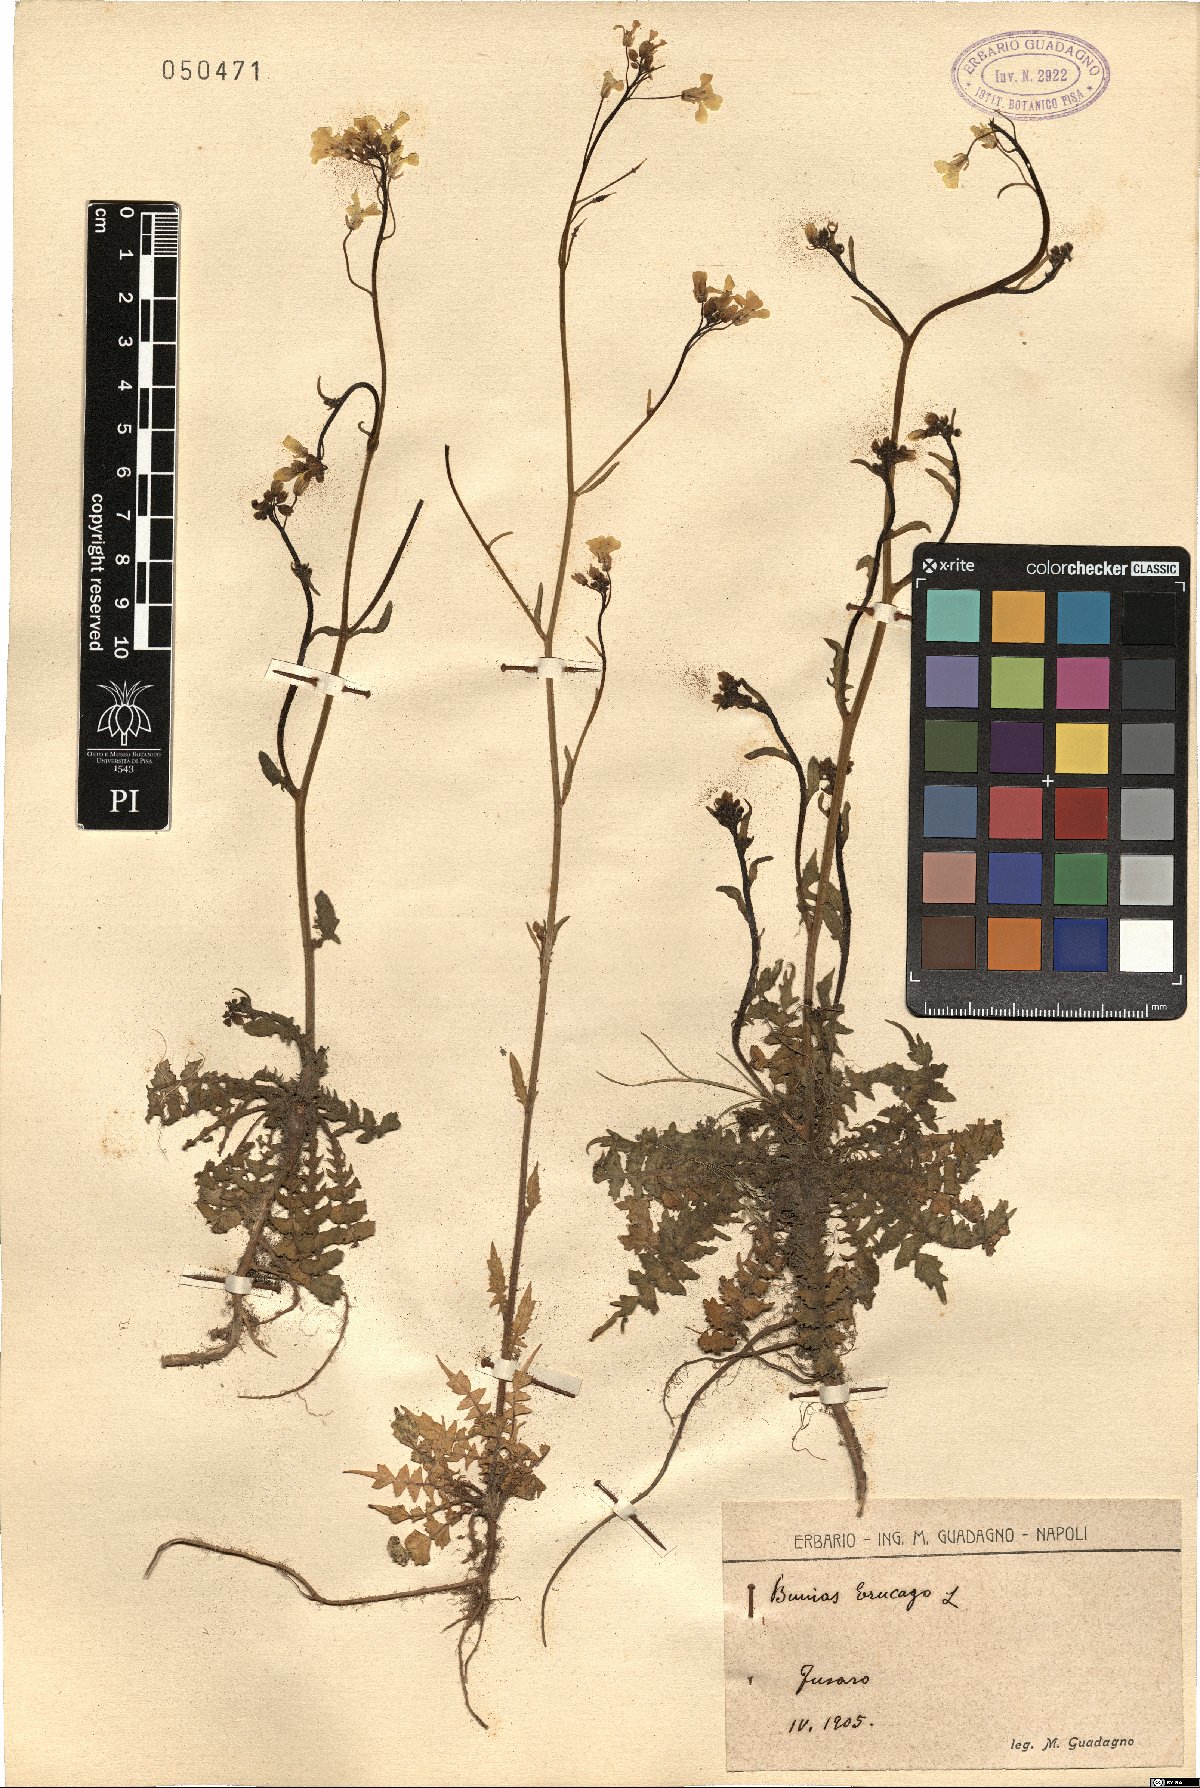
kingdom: Plantae
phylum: Tracheophyta
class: Magnoliopsida
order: Brassicales
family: Brassicaceae
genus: Bunias
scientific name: Bunias erucago
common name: Southern warty-cabbage
